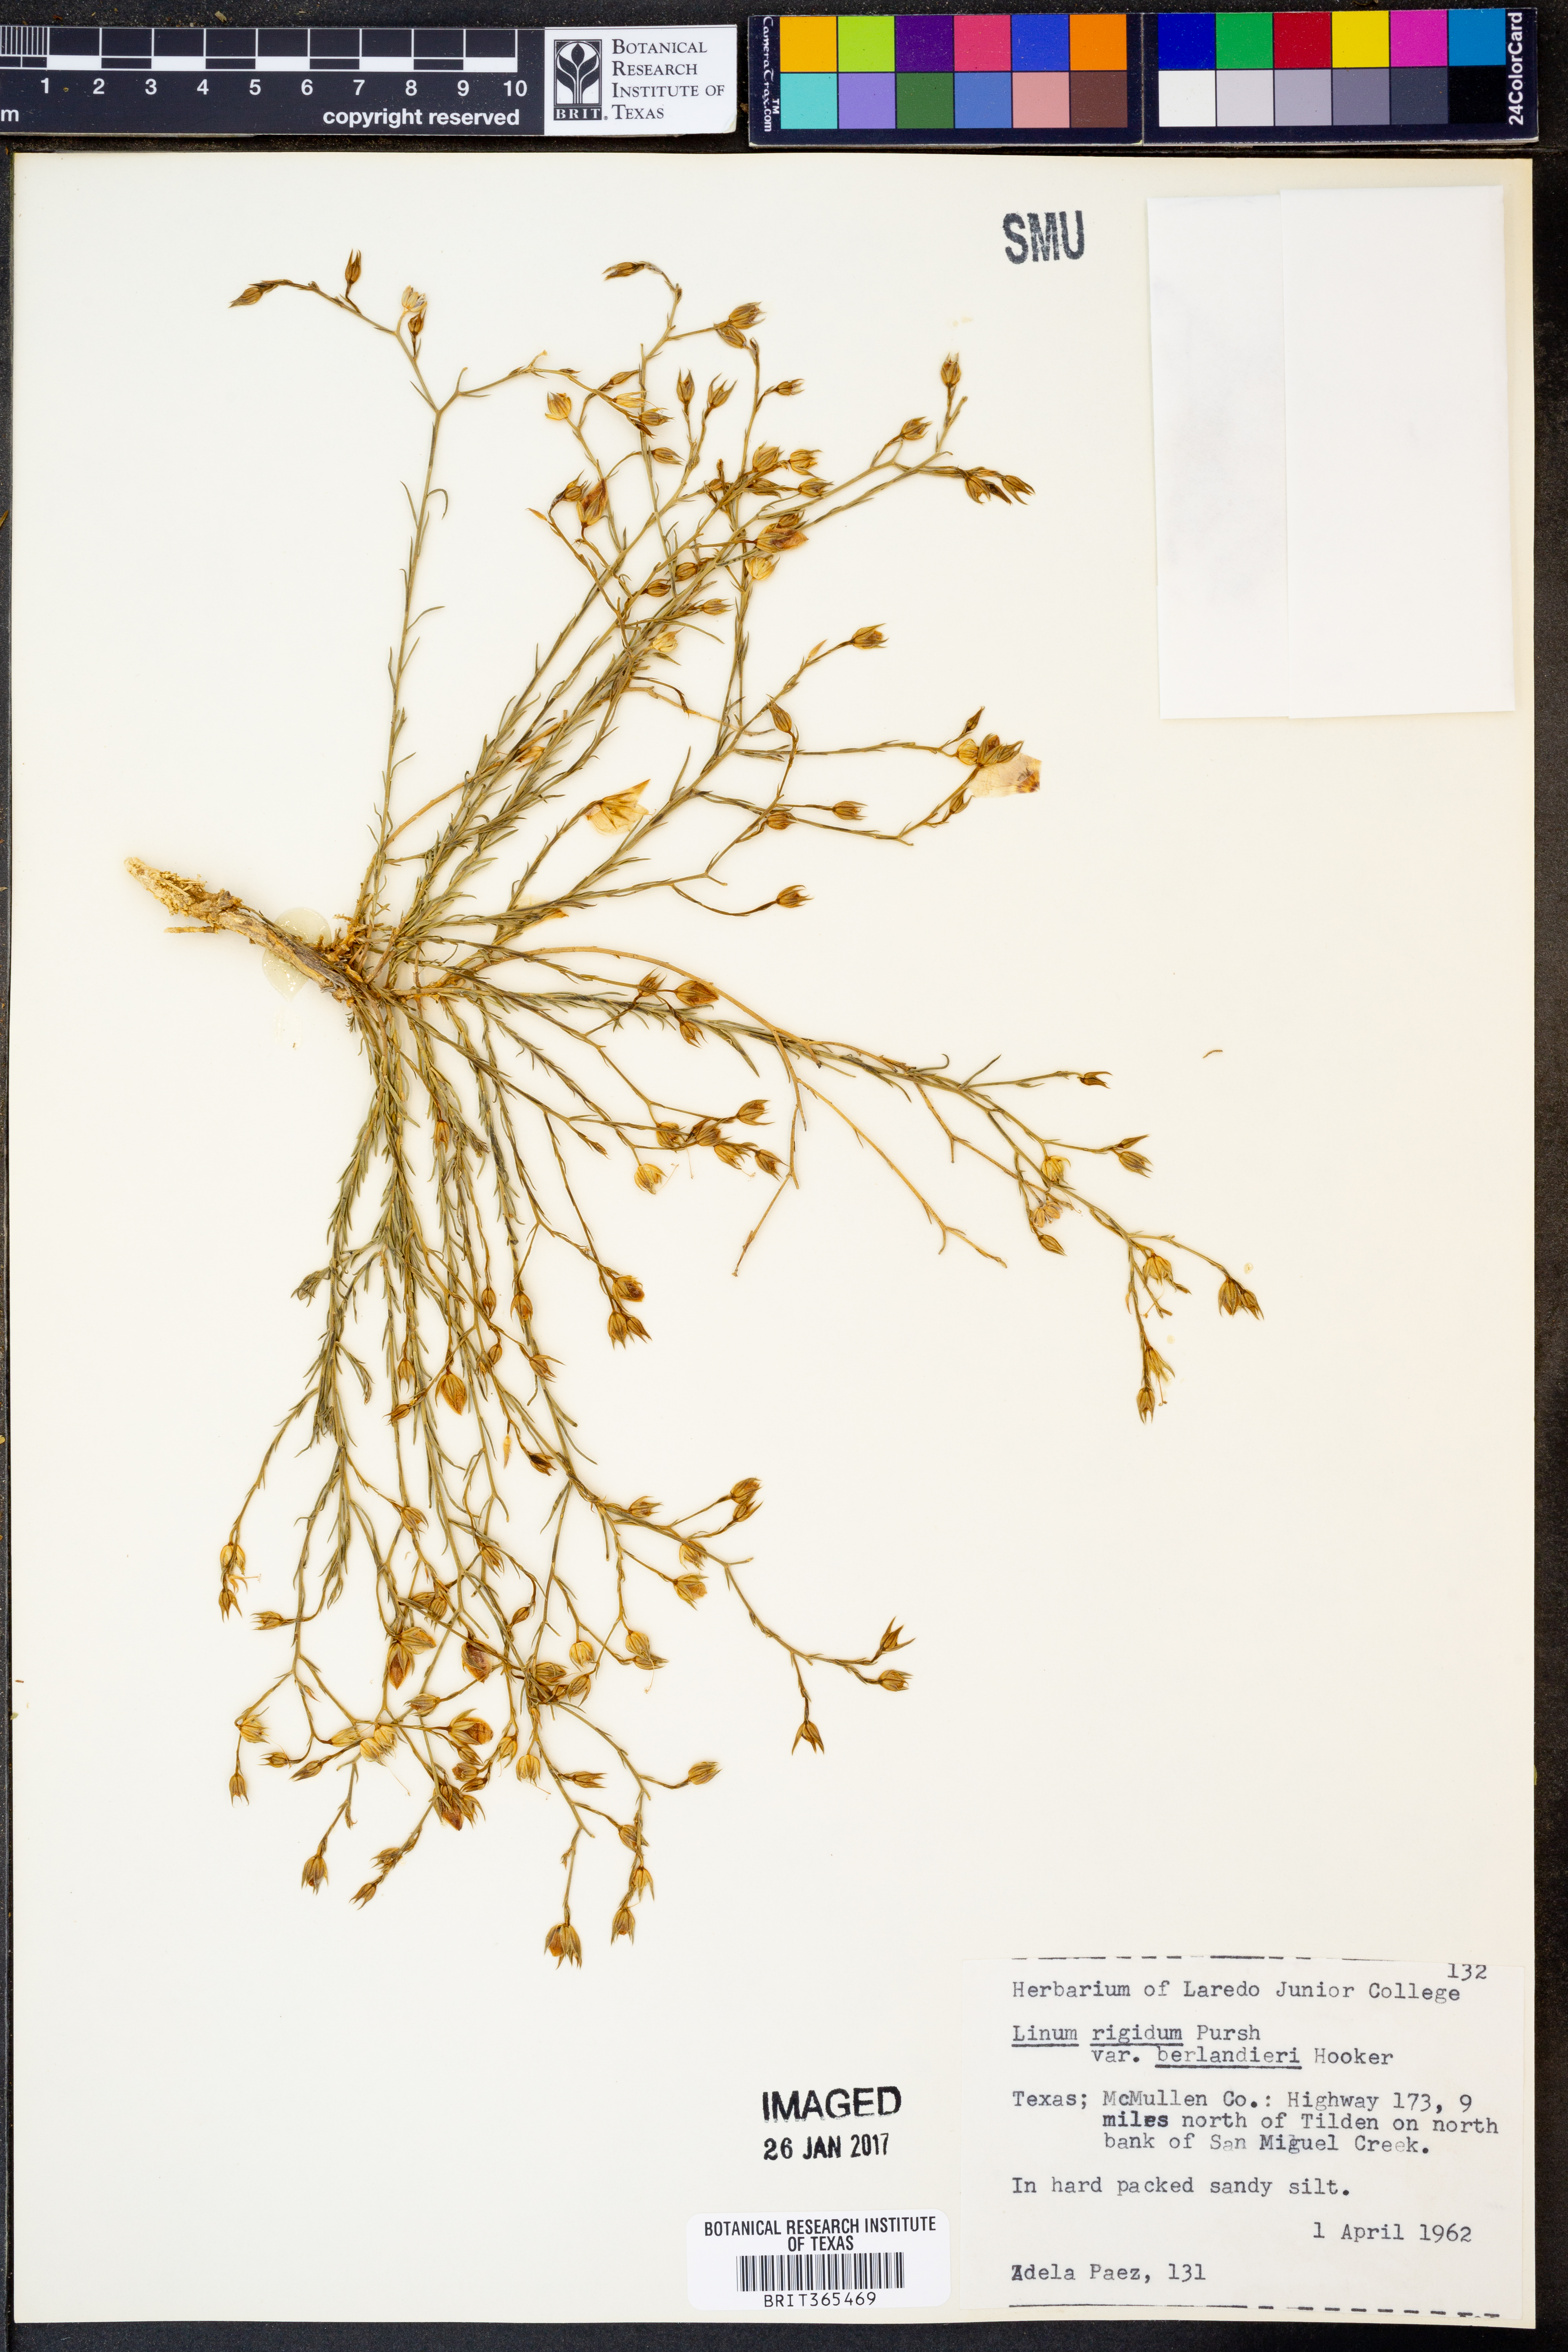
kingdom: Plantae
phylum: Tracheophyta
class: Magnoliopsida
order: Malpighiales
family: Linaceae
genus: Linum
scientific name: Linum berlandieri
